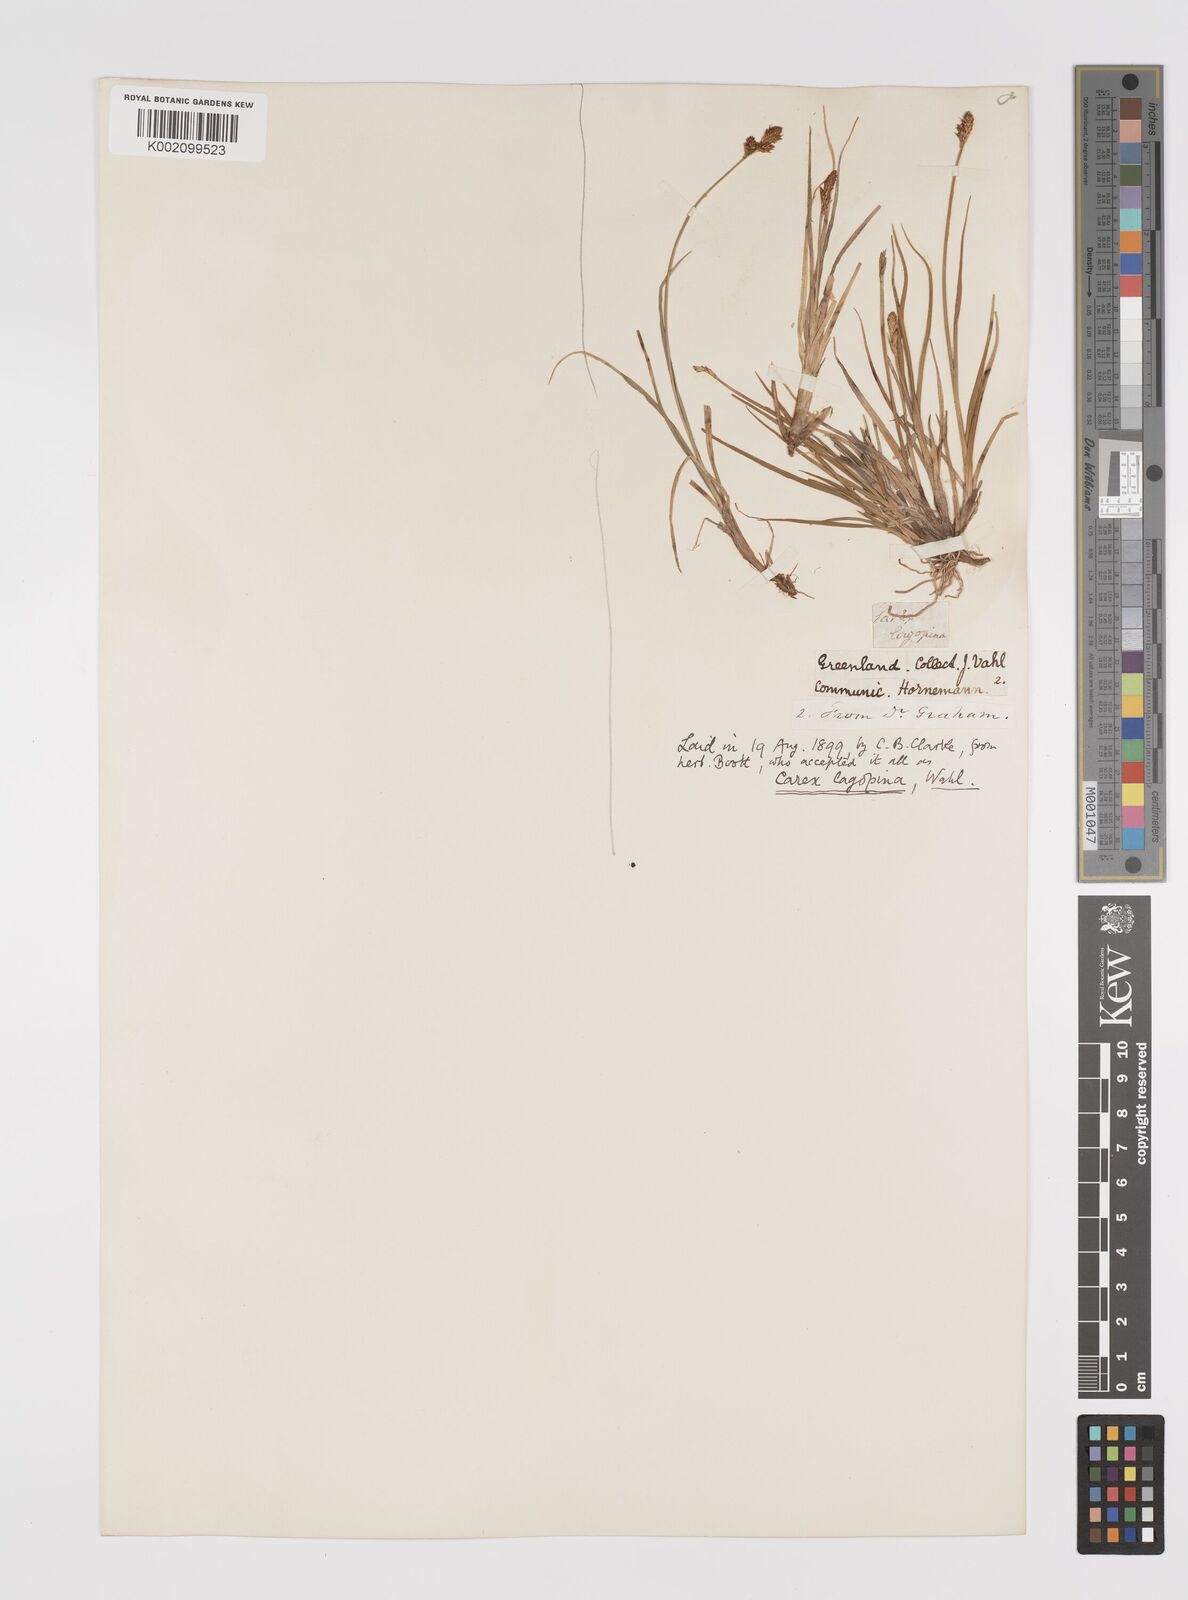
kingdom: Plantae
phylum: Tracheophyta
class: Liliopsida
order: Poales
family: Cyperaceae
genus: Carex
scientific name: Carex lachenalii
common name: Hare's-foot sedge
